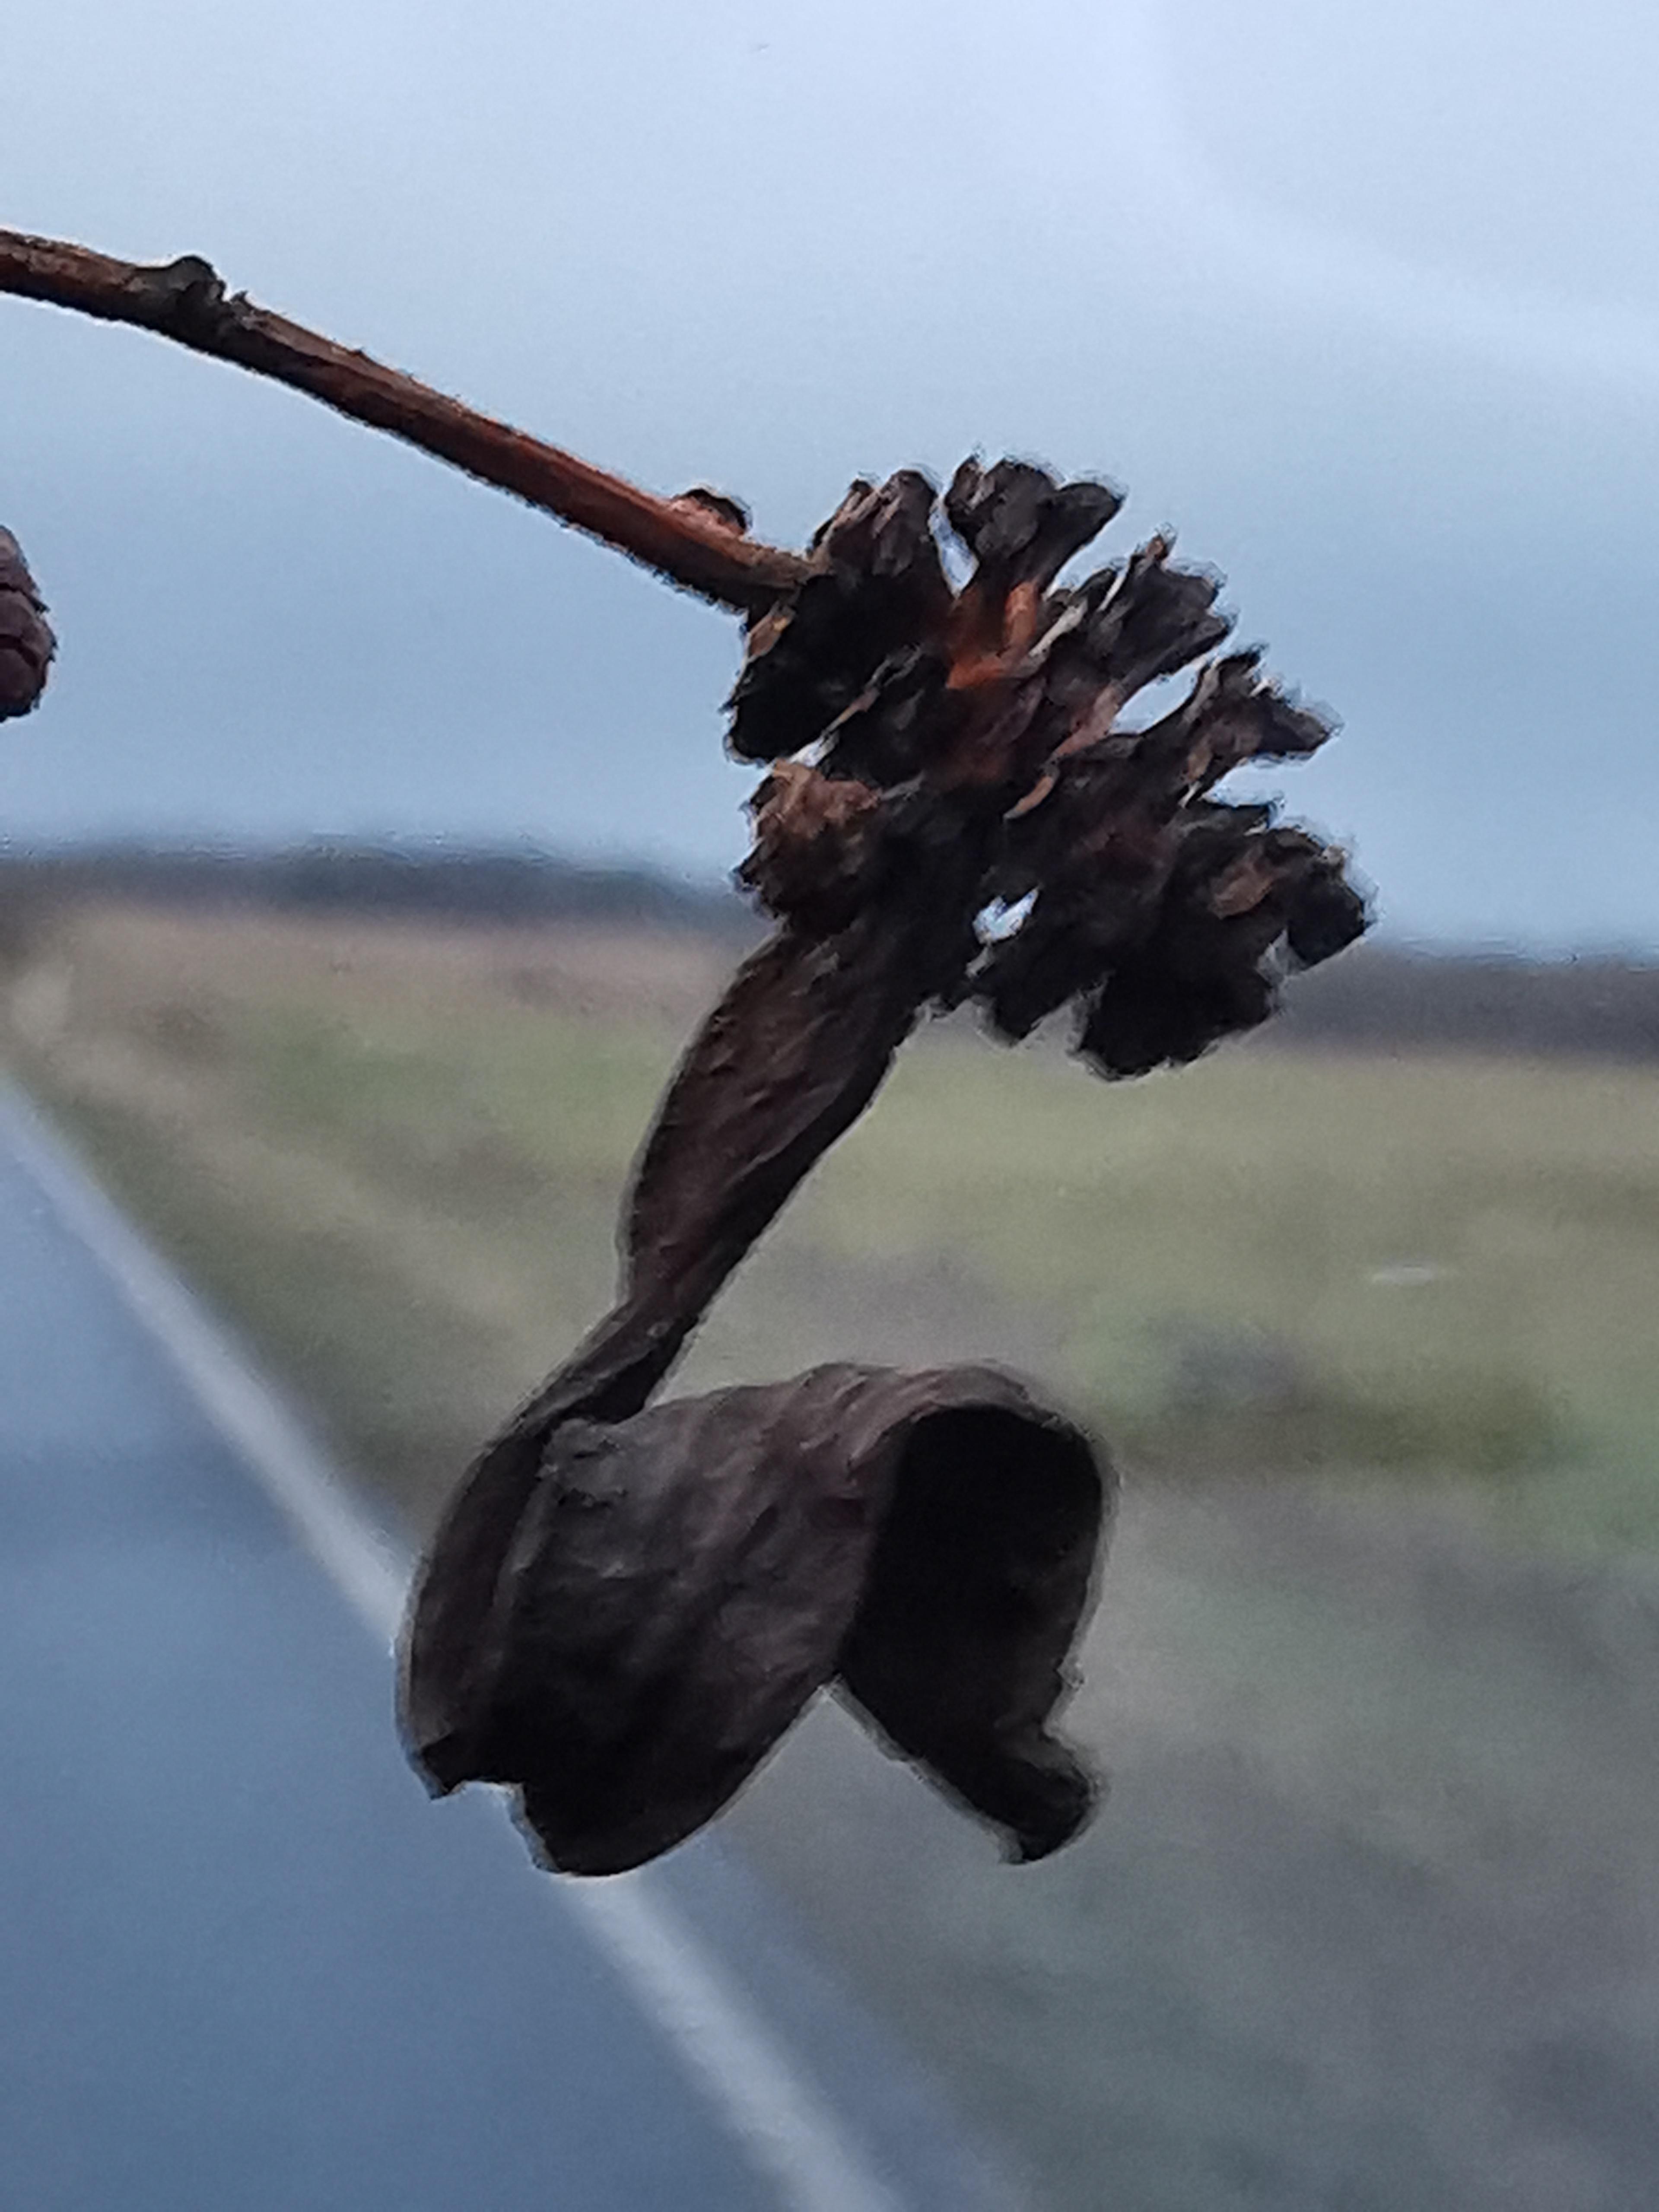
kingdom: Fungi
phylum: Ascomycota
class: Taphrinomycetes
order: Taphrinales
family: Taphrinaceae
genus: Taphrina
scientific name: Taphrina alni
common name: Alder tongue
